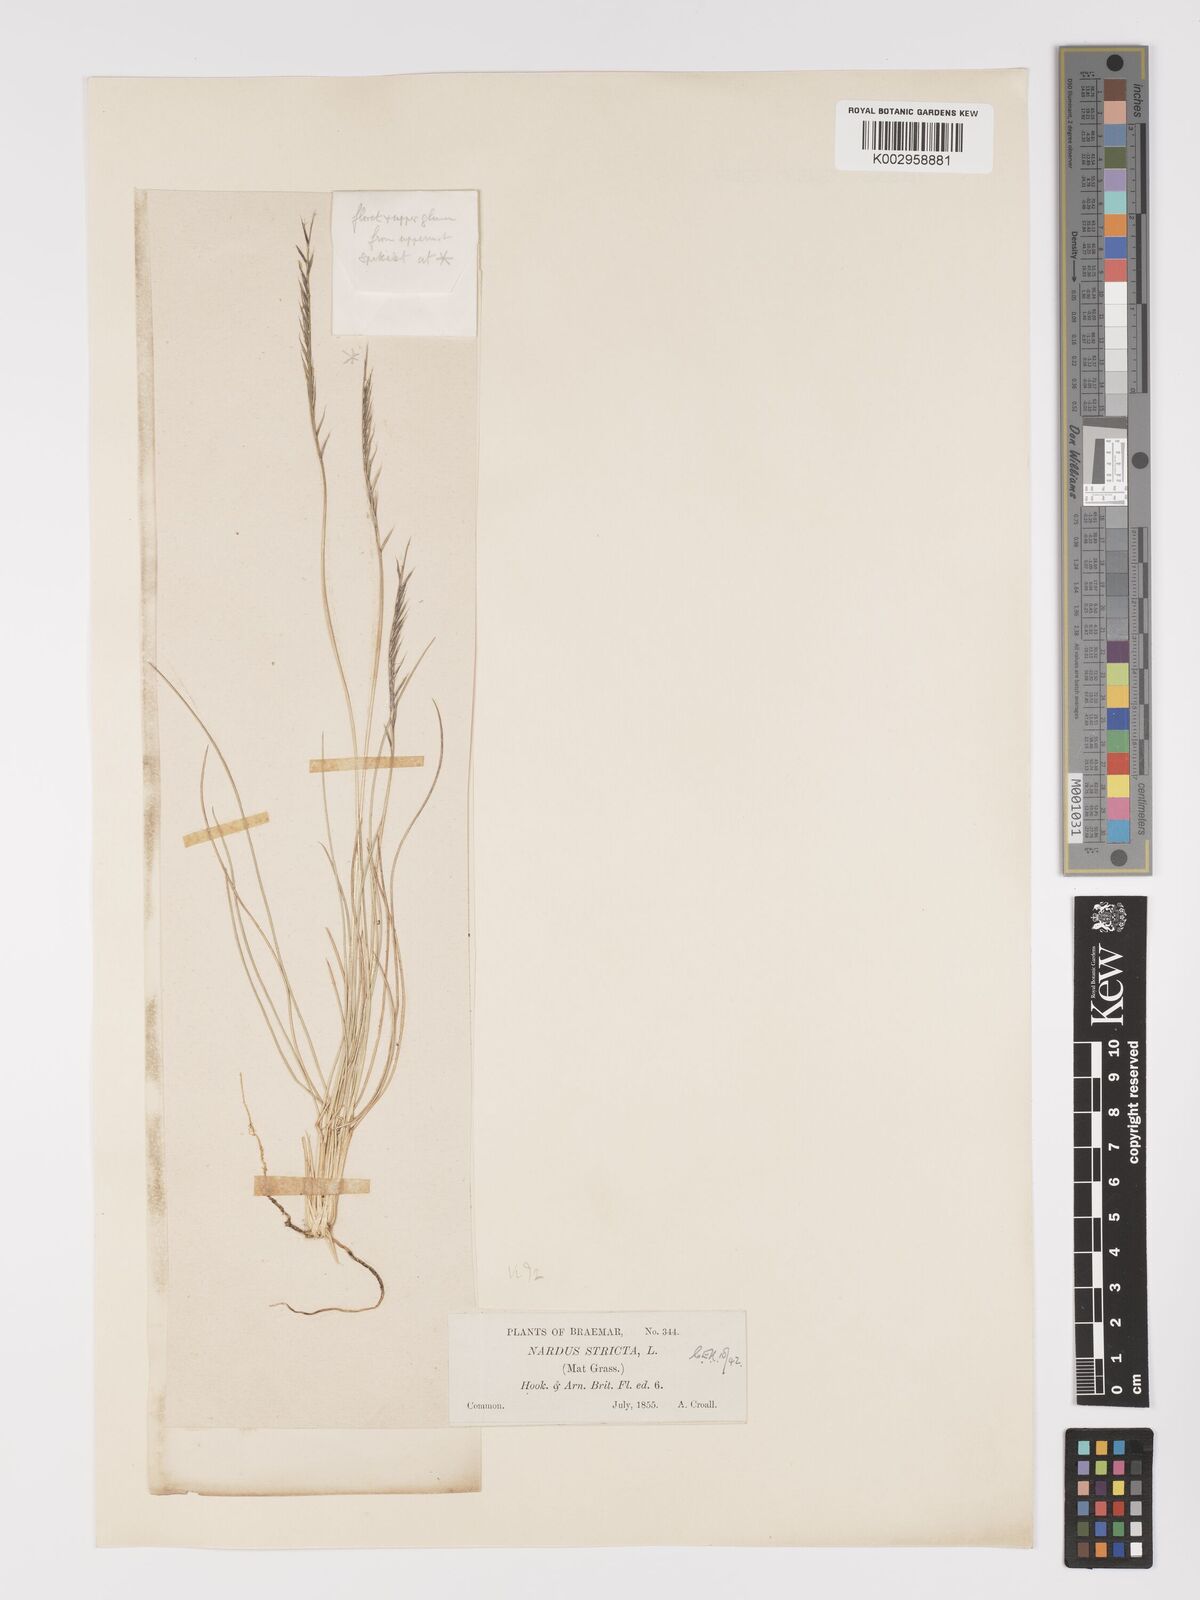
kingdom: Plantae
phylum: Tracheophyta
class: Liliopsida
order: Poales
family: Poaceae
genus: Nardus
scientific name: Nardus stricta
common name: Mat-grass
